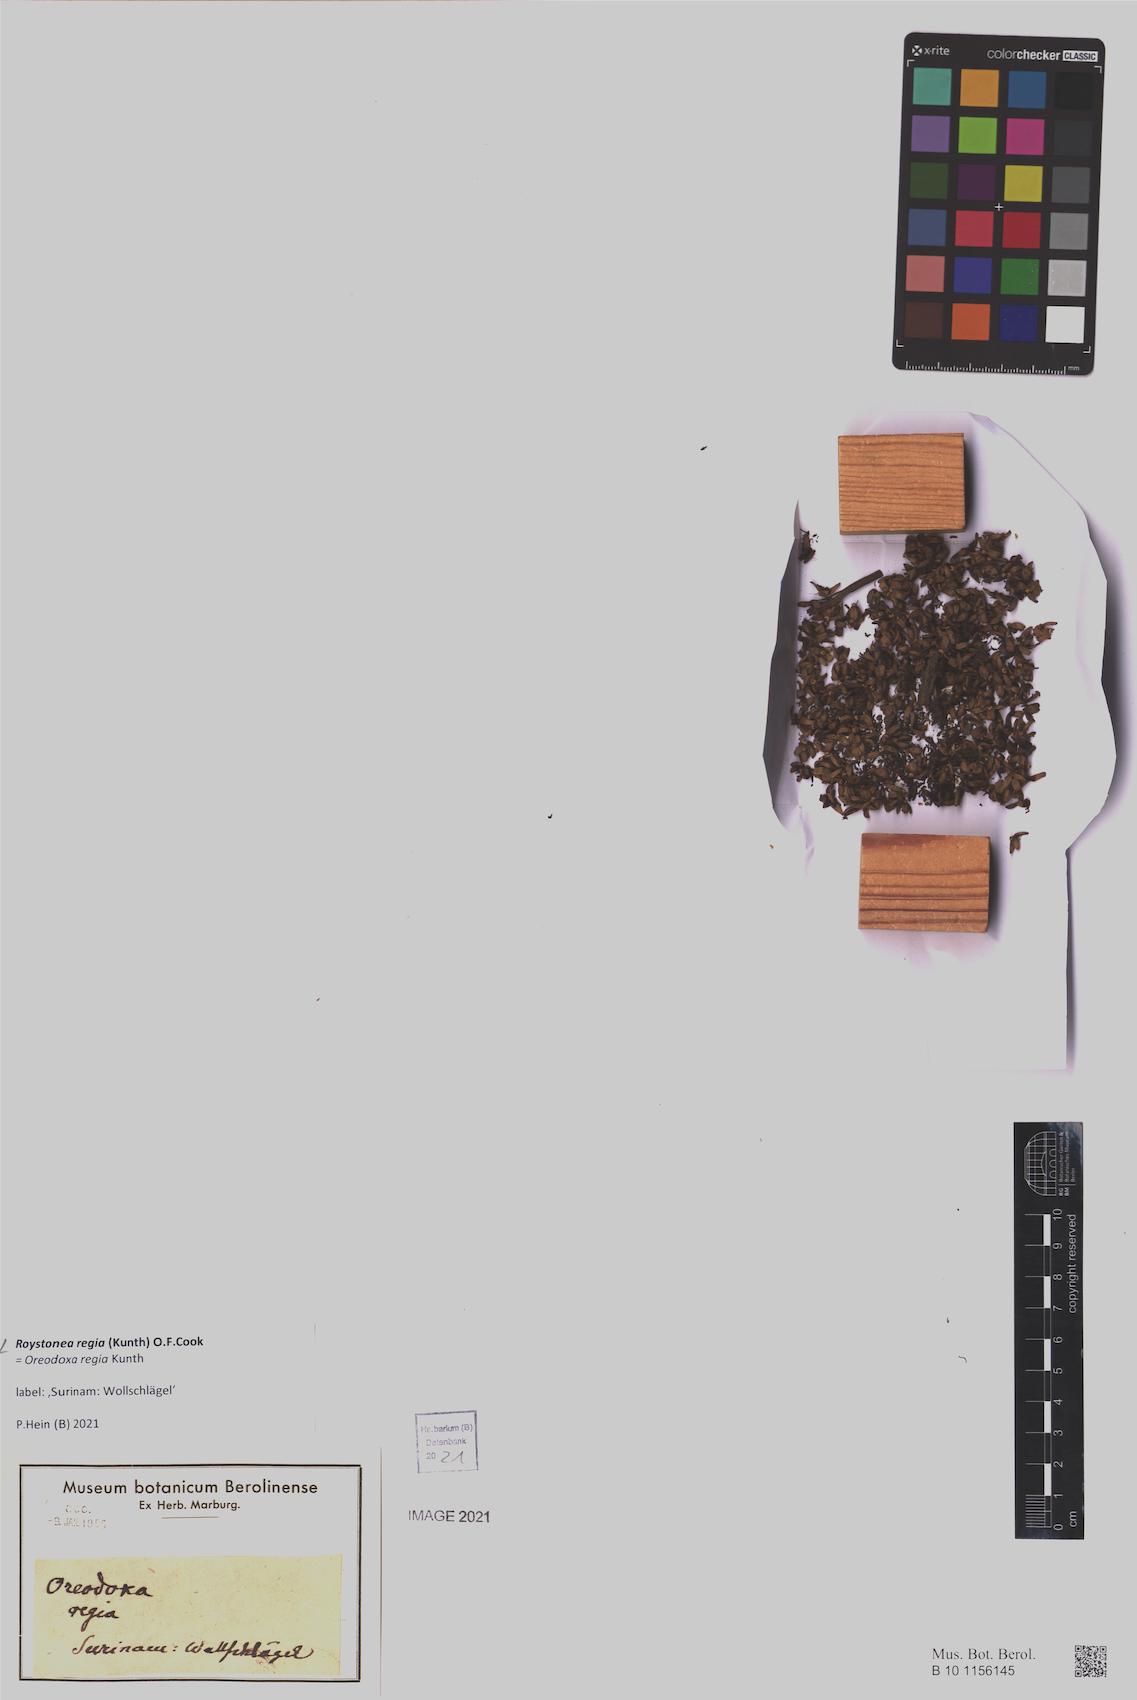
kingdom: Plantae
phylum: Tracheophyta
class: Liliopsida
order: Arecales
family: Arecaceae
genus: Roystonea
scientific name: Roystonea regia
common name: Florida royal palm
